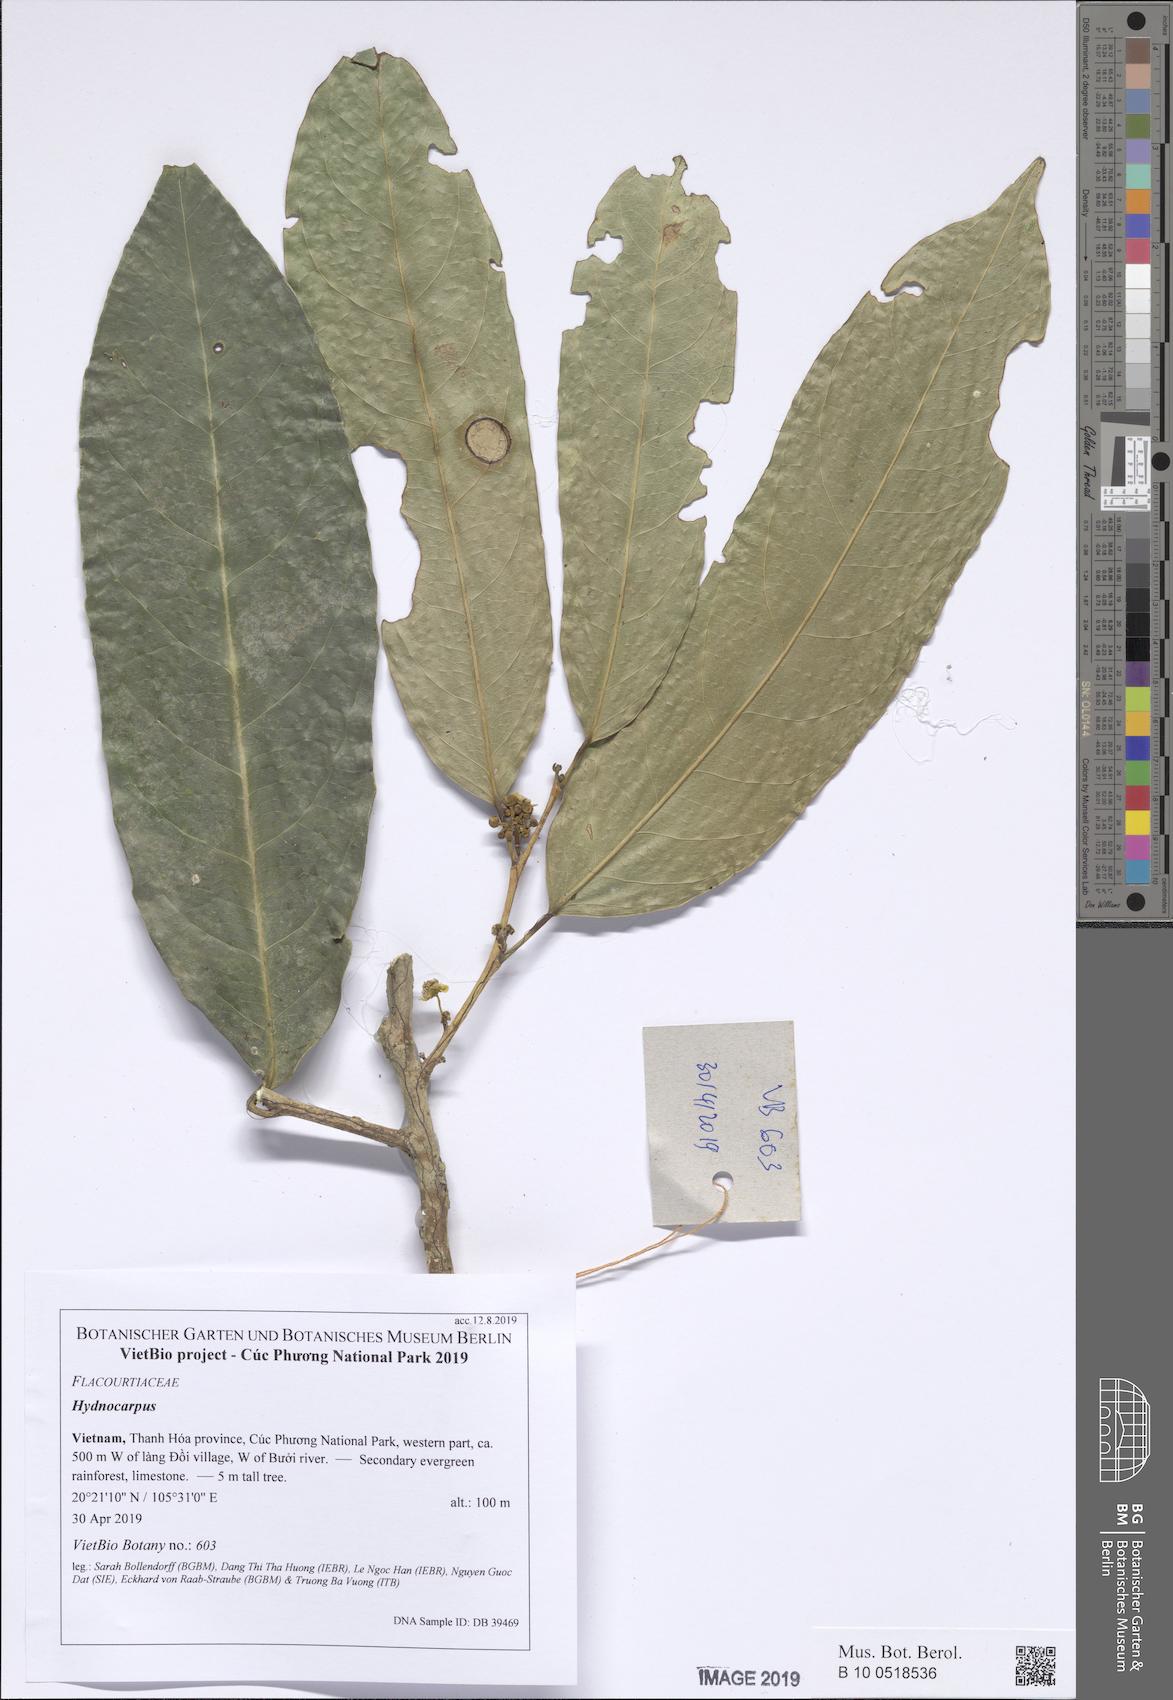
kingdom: Plantae
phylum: Tracheophyta
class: Magnoliopsida
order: Malpighiales
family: Achariaceae
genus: Hydnocarpus
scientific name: Hydnocarpus kurzii
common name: Chaulmoogra
